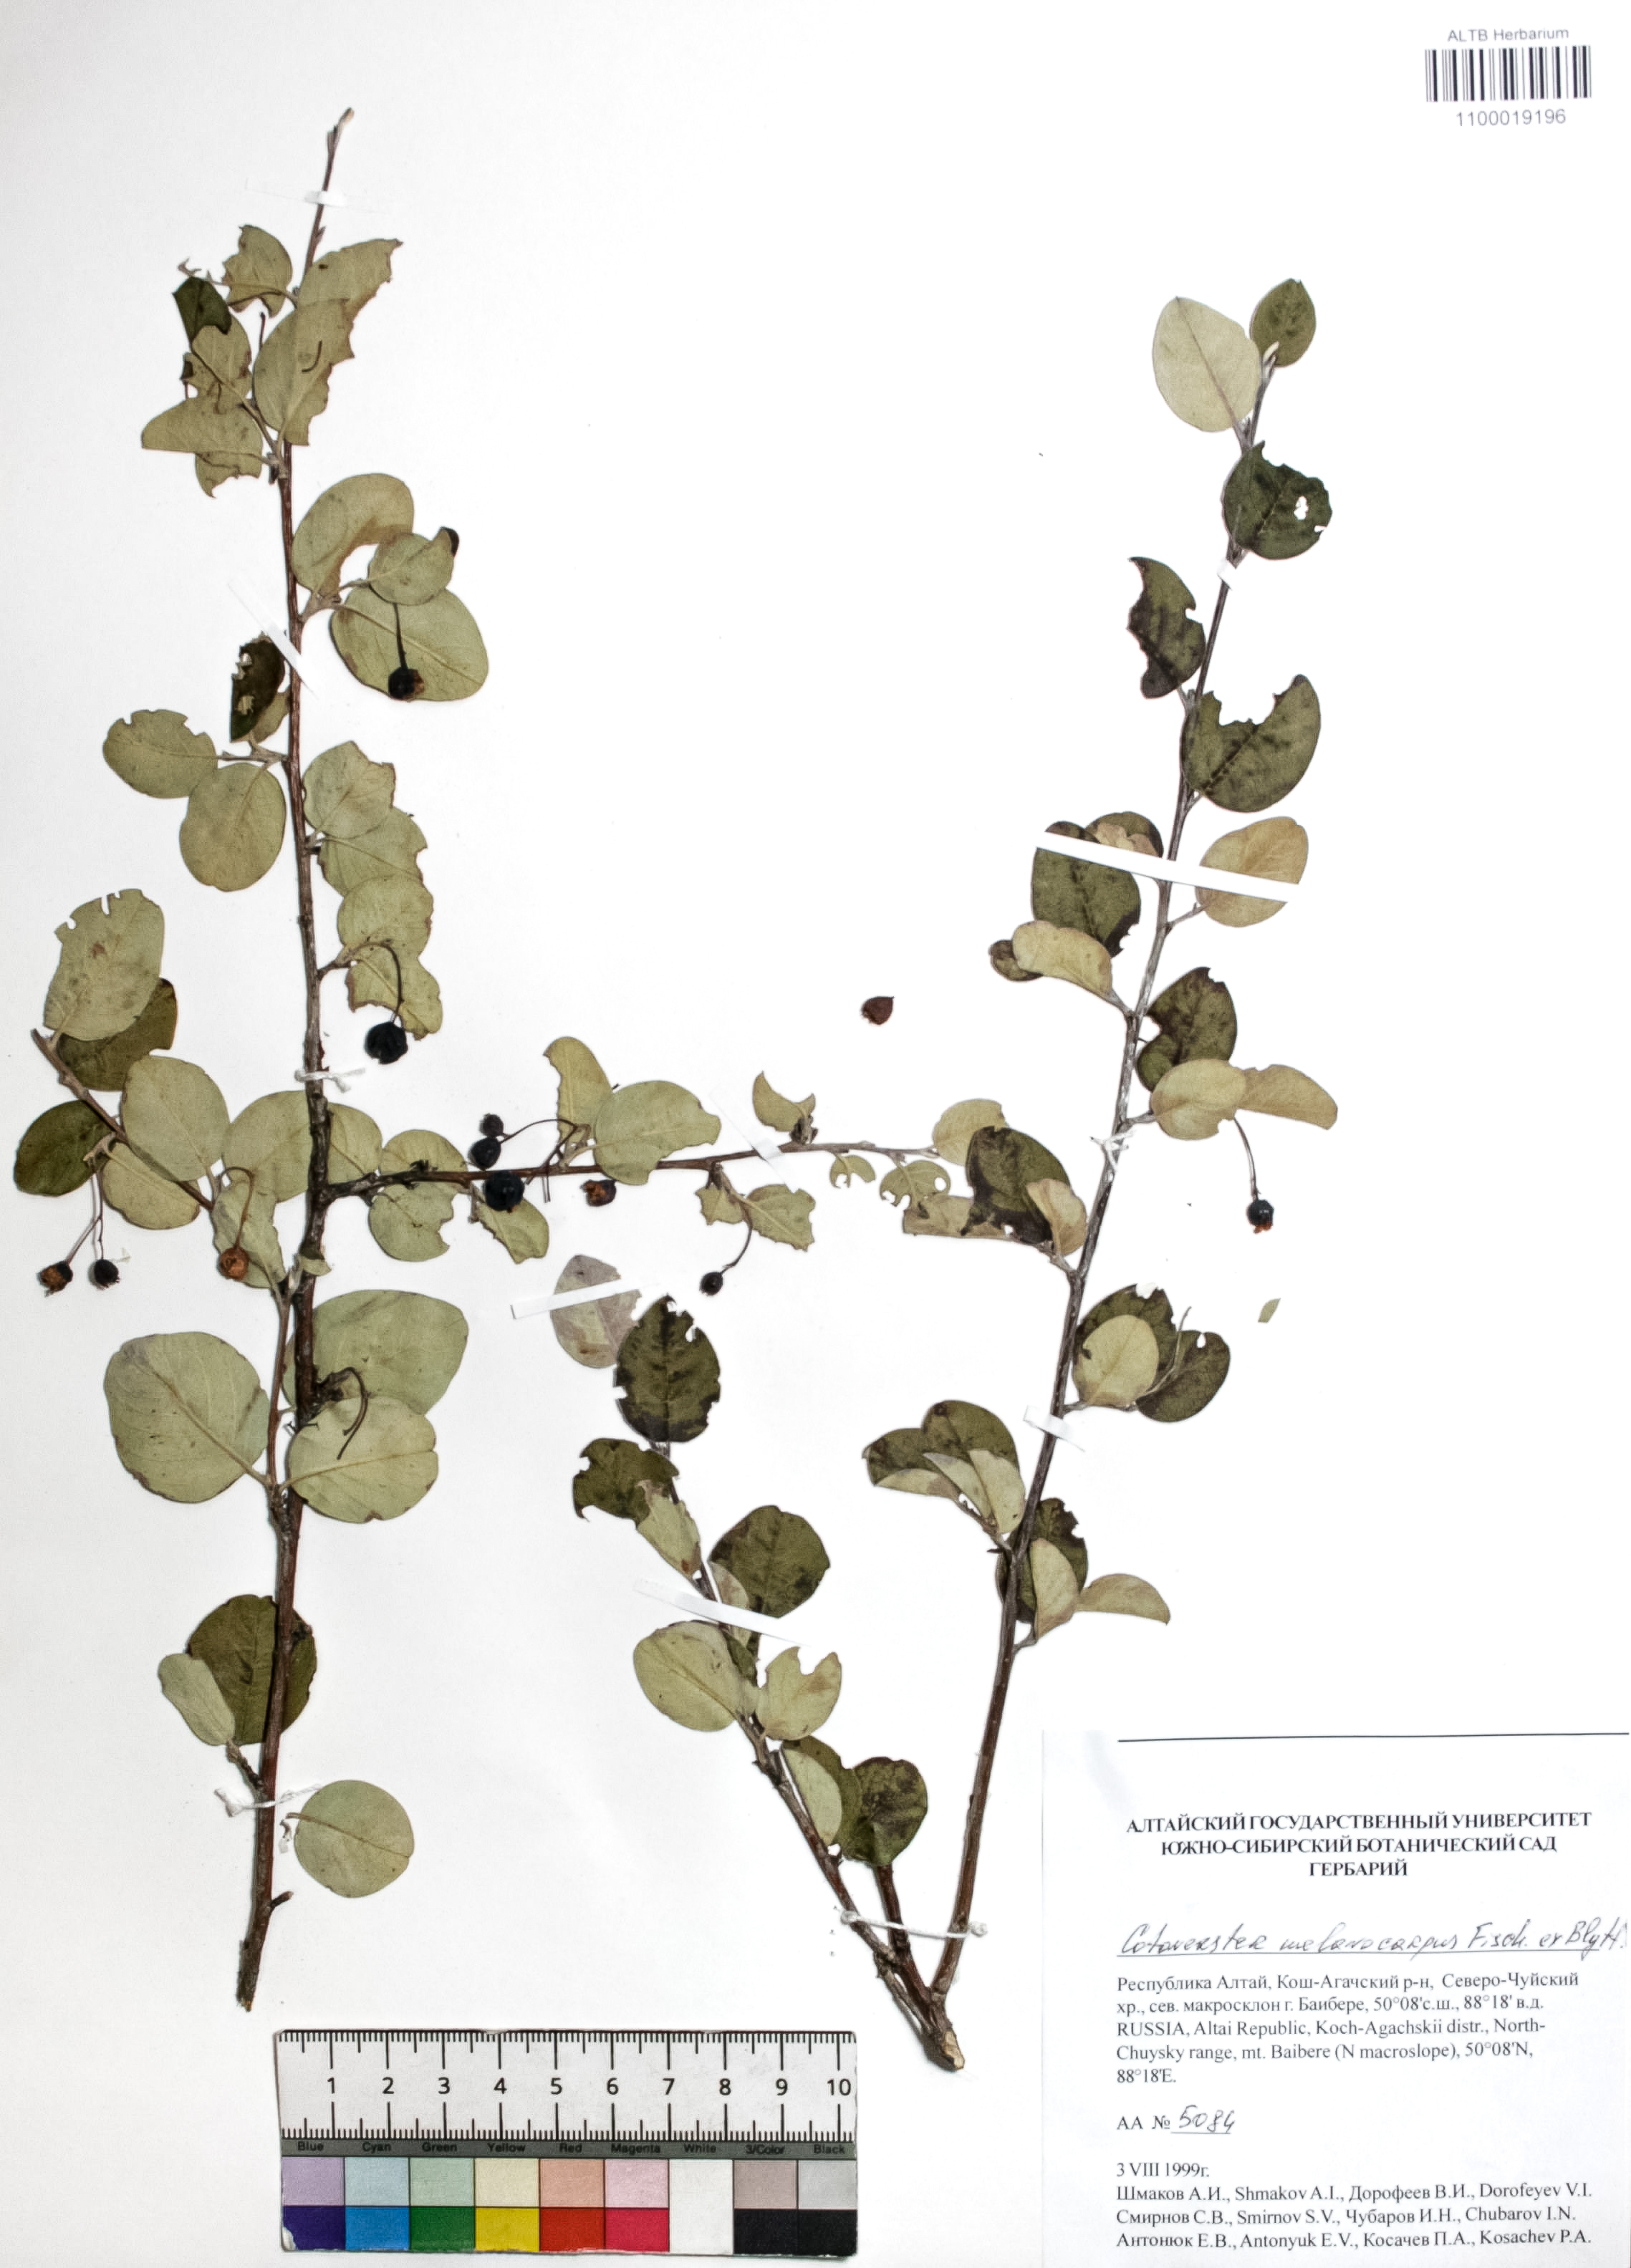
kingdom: Plantae
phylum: Tracheophyta
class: Magnoliopsida
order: Rosales
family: Rosaceae
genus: Cotoneaster
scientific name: Cotoneaster niger
